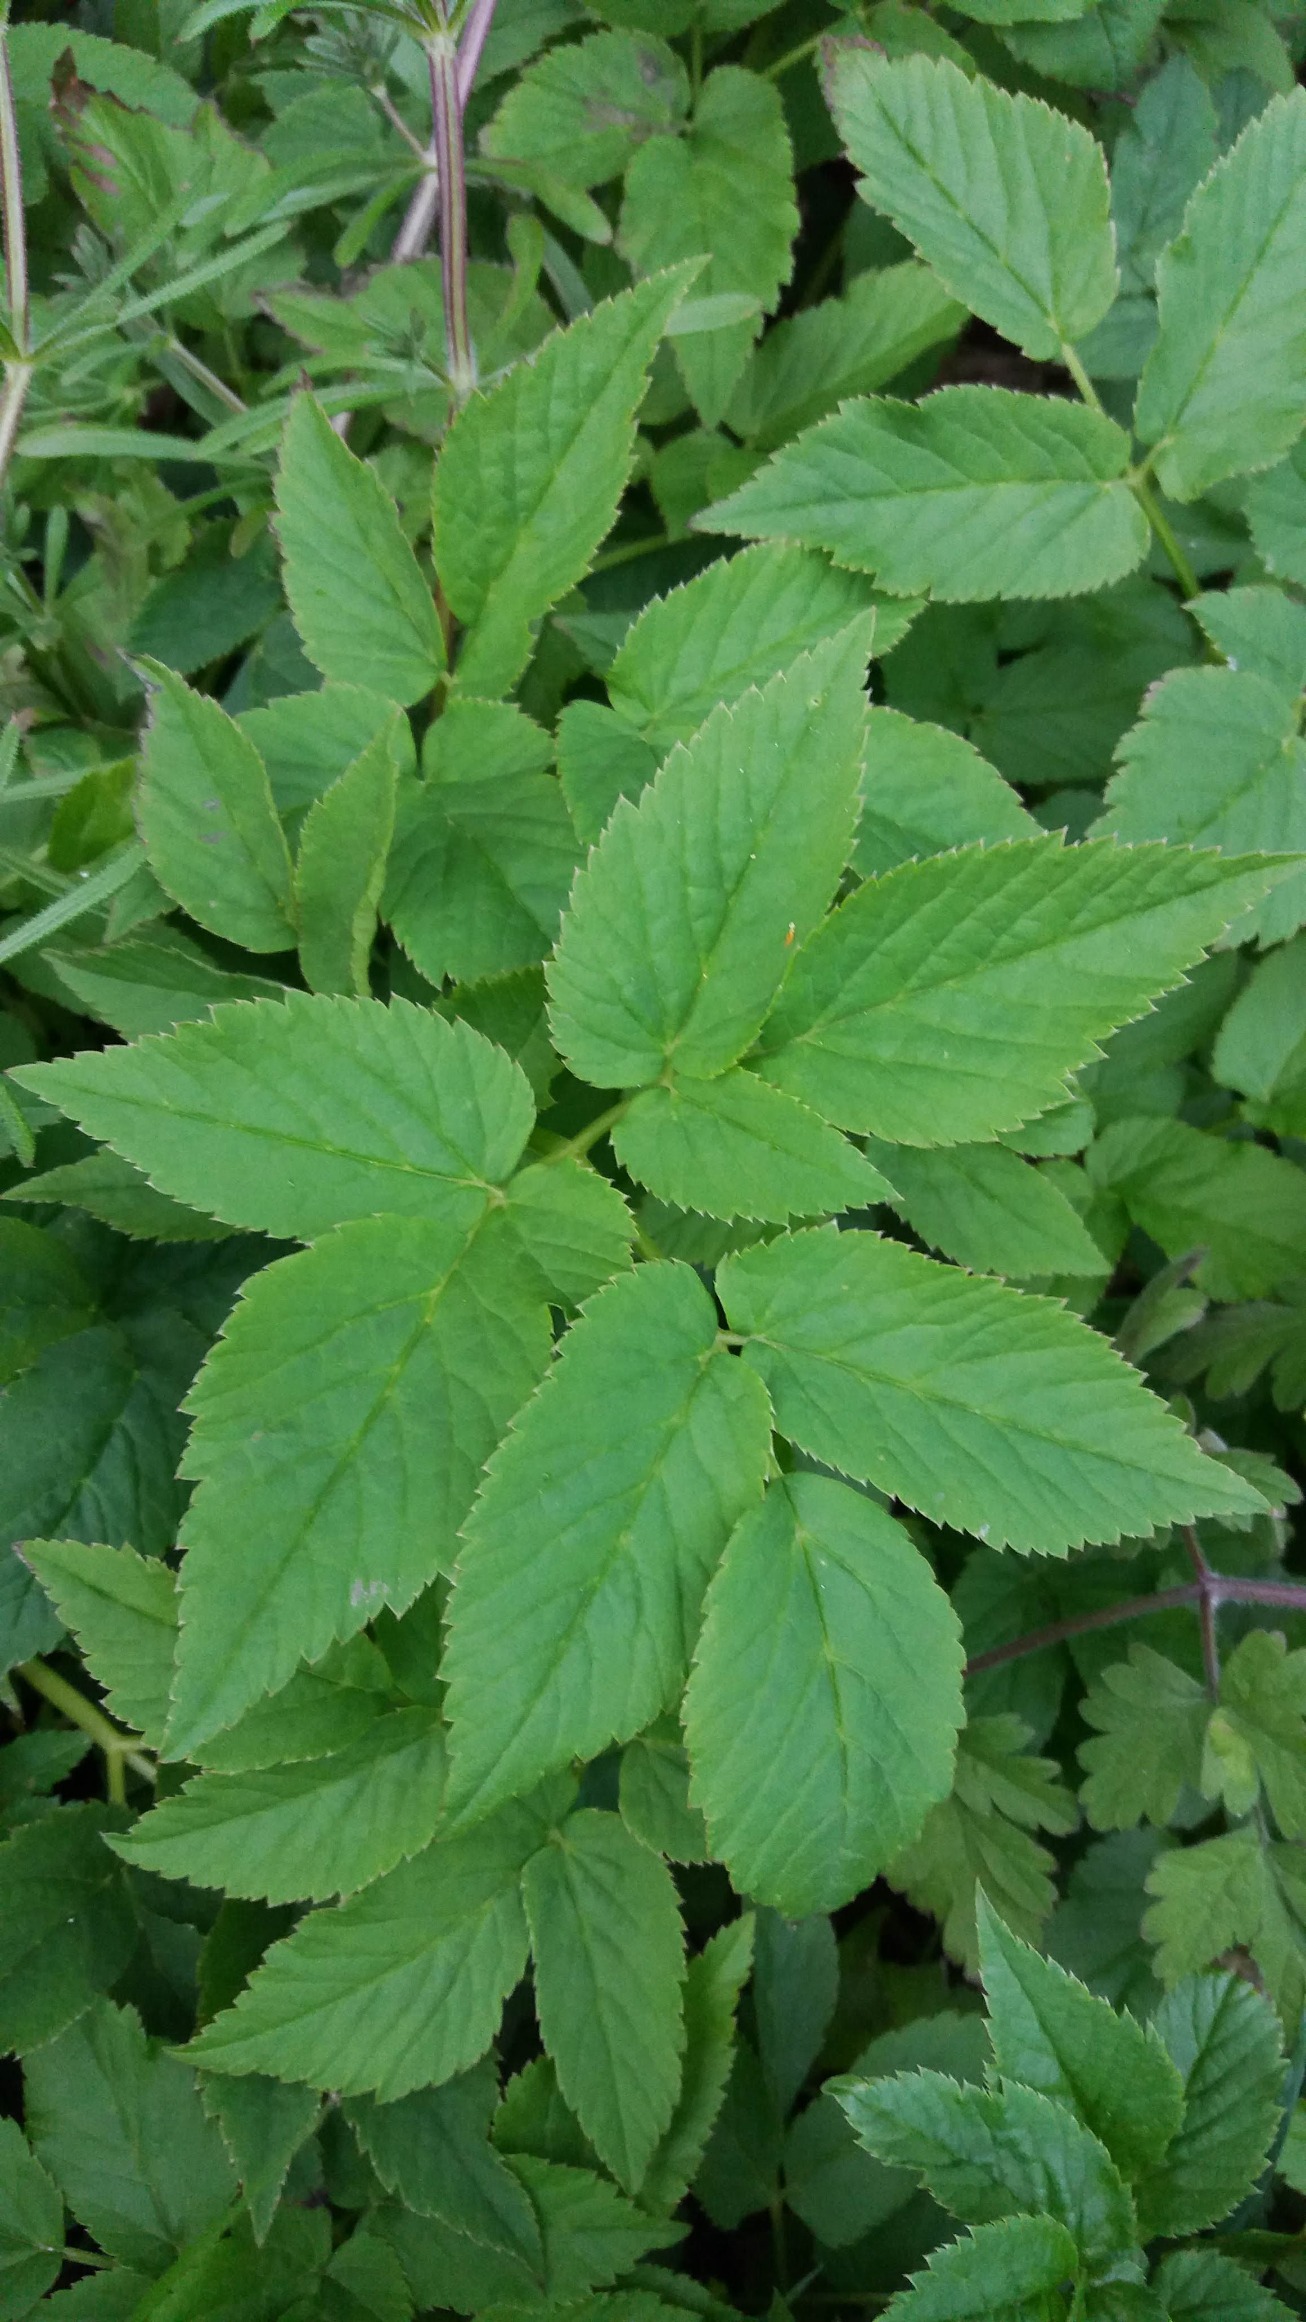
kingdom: Plantae
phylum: Tracheophyta
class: Magnoliopsida
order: Apiales
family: Apiaceae
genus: Aegopodium
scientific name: Aegopodium podagraria
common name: Skvalderkål
